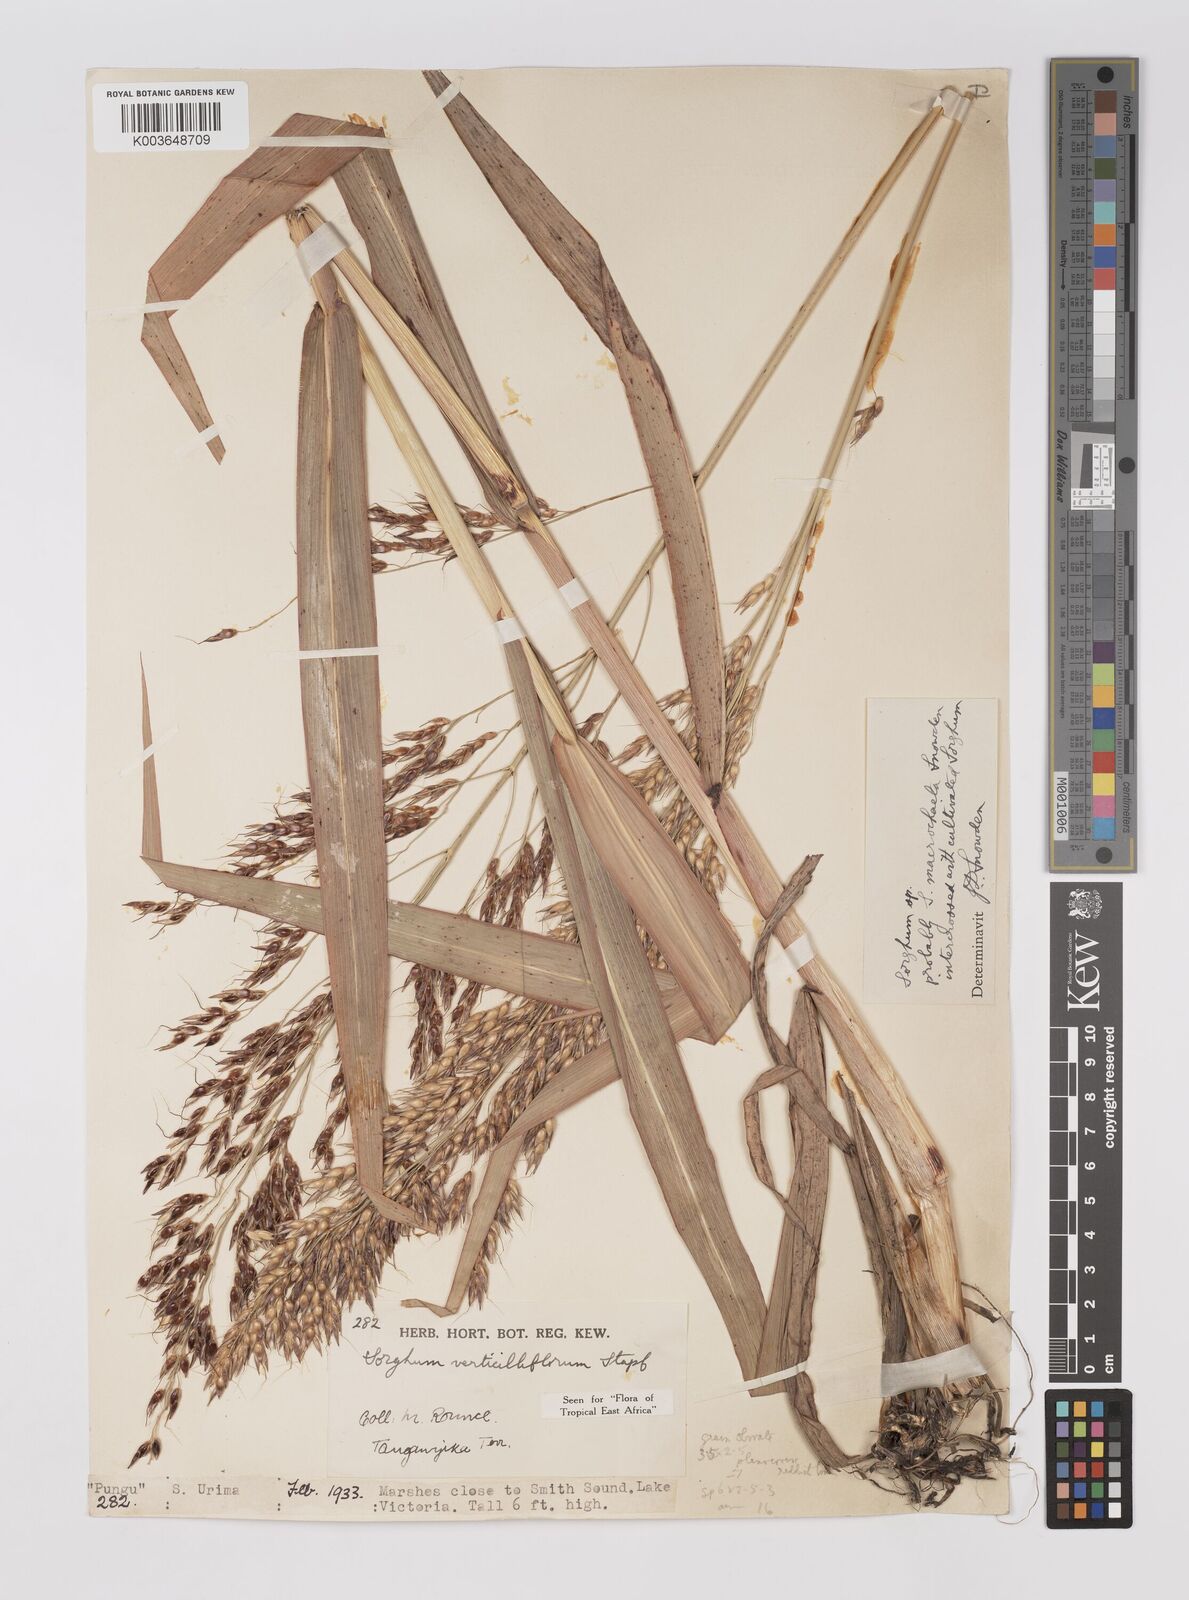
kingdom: Plantae
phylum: Tracheophyta
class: Liliopsida
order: Poales
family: Poaceae
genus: Sorghum
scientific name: Sorghum arundinaceum
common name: Sorghum
